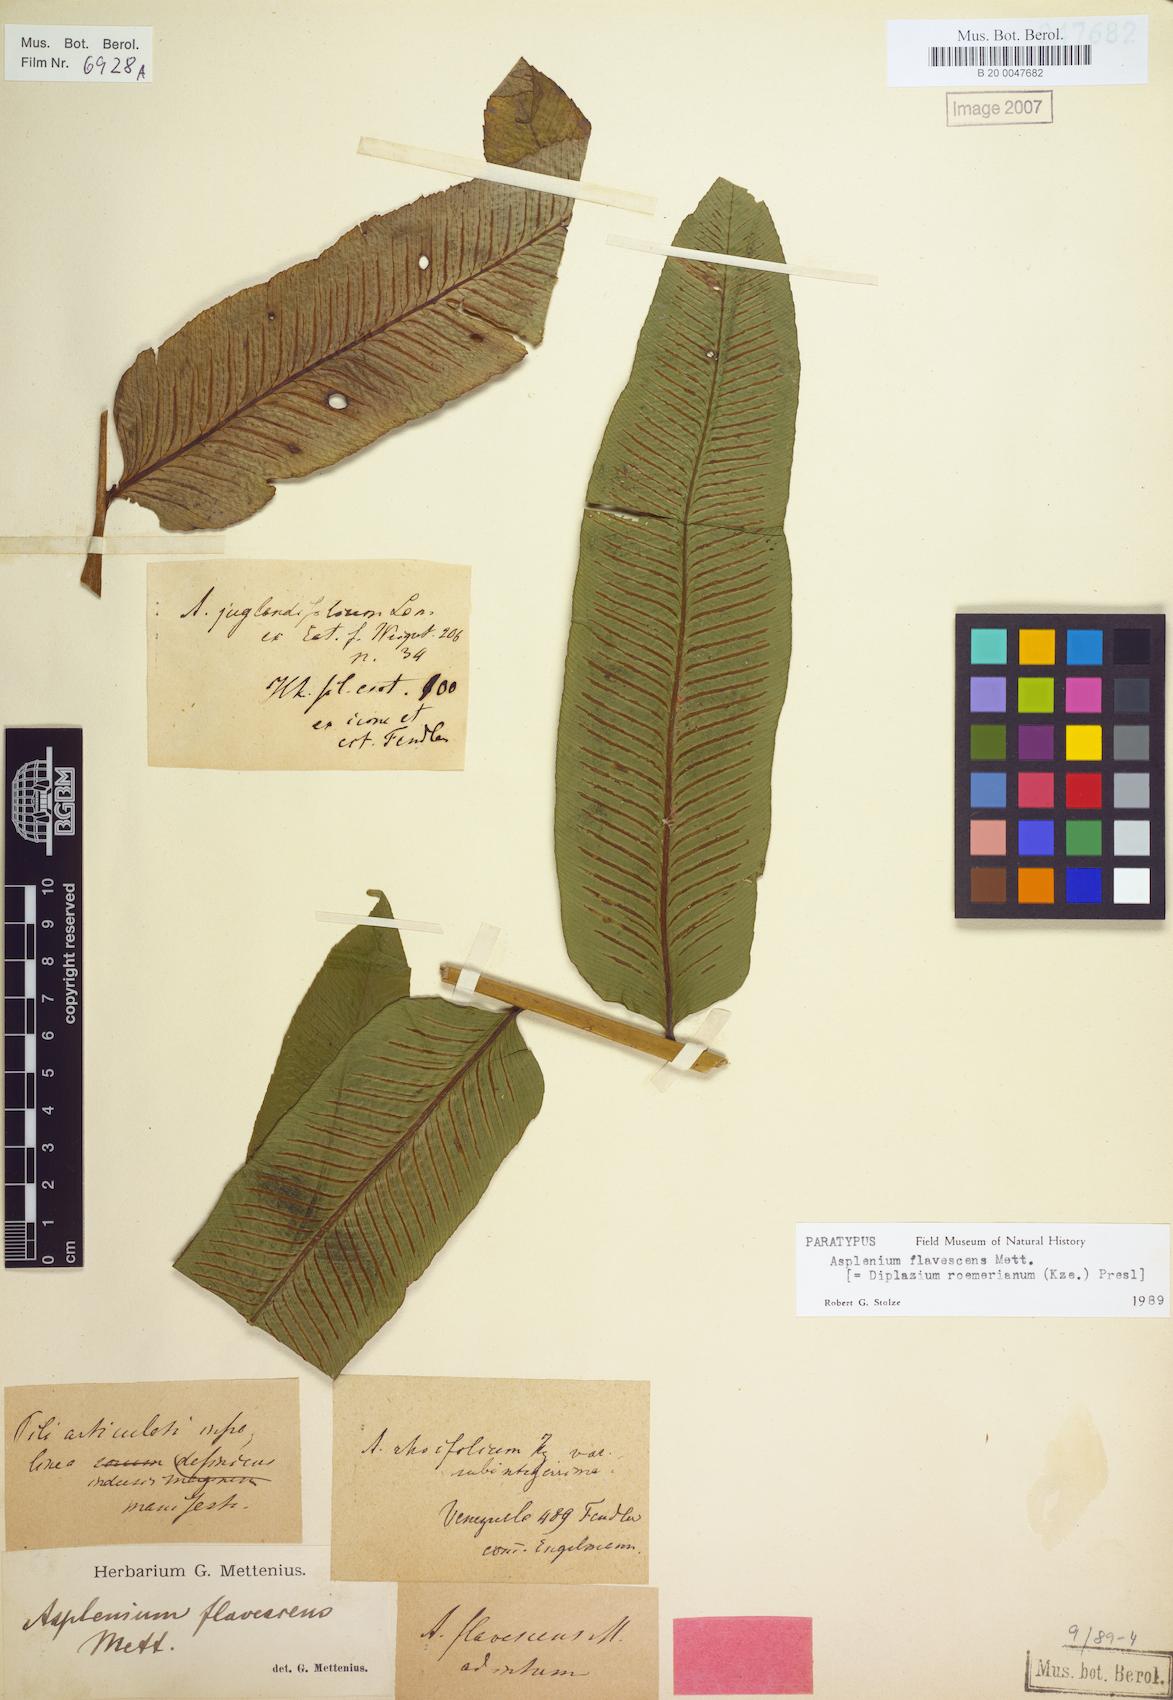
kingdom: Plantae
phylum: Tracheophyta
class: Polypodiopsida
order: Polypodiales
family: Athyriaceae
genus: Diplazium
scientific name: Diplazium roemerianum
